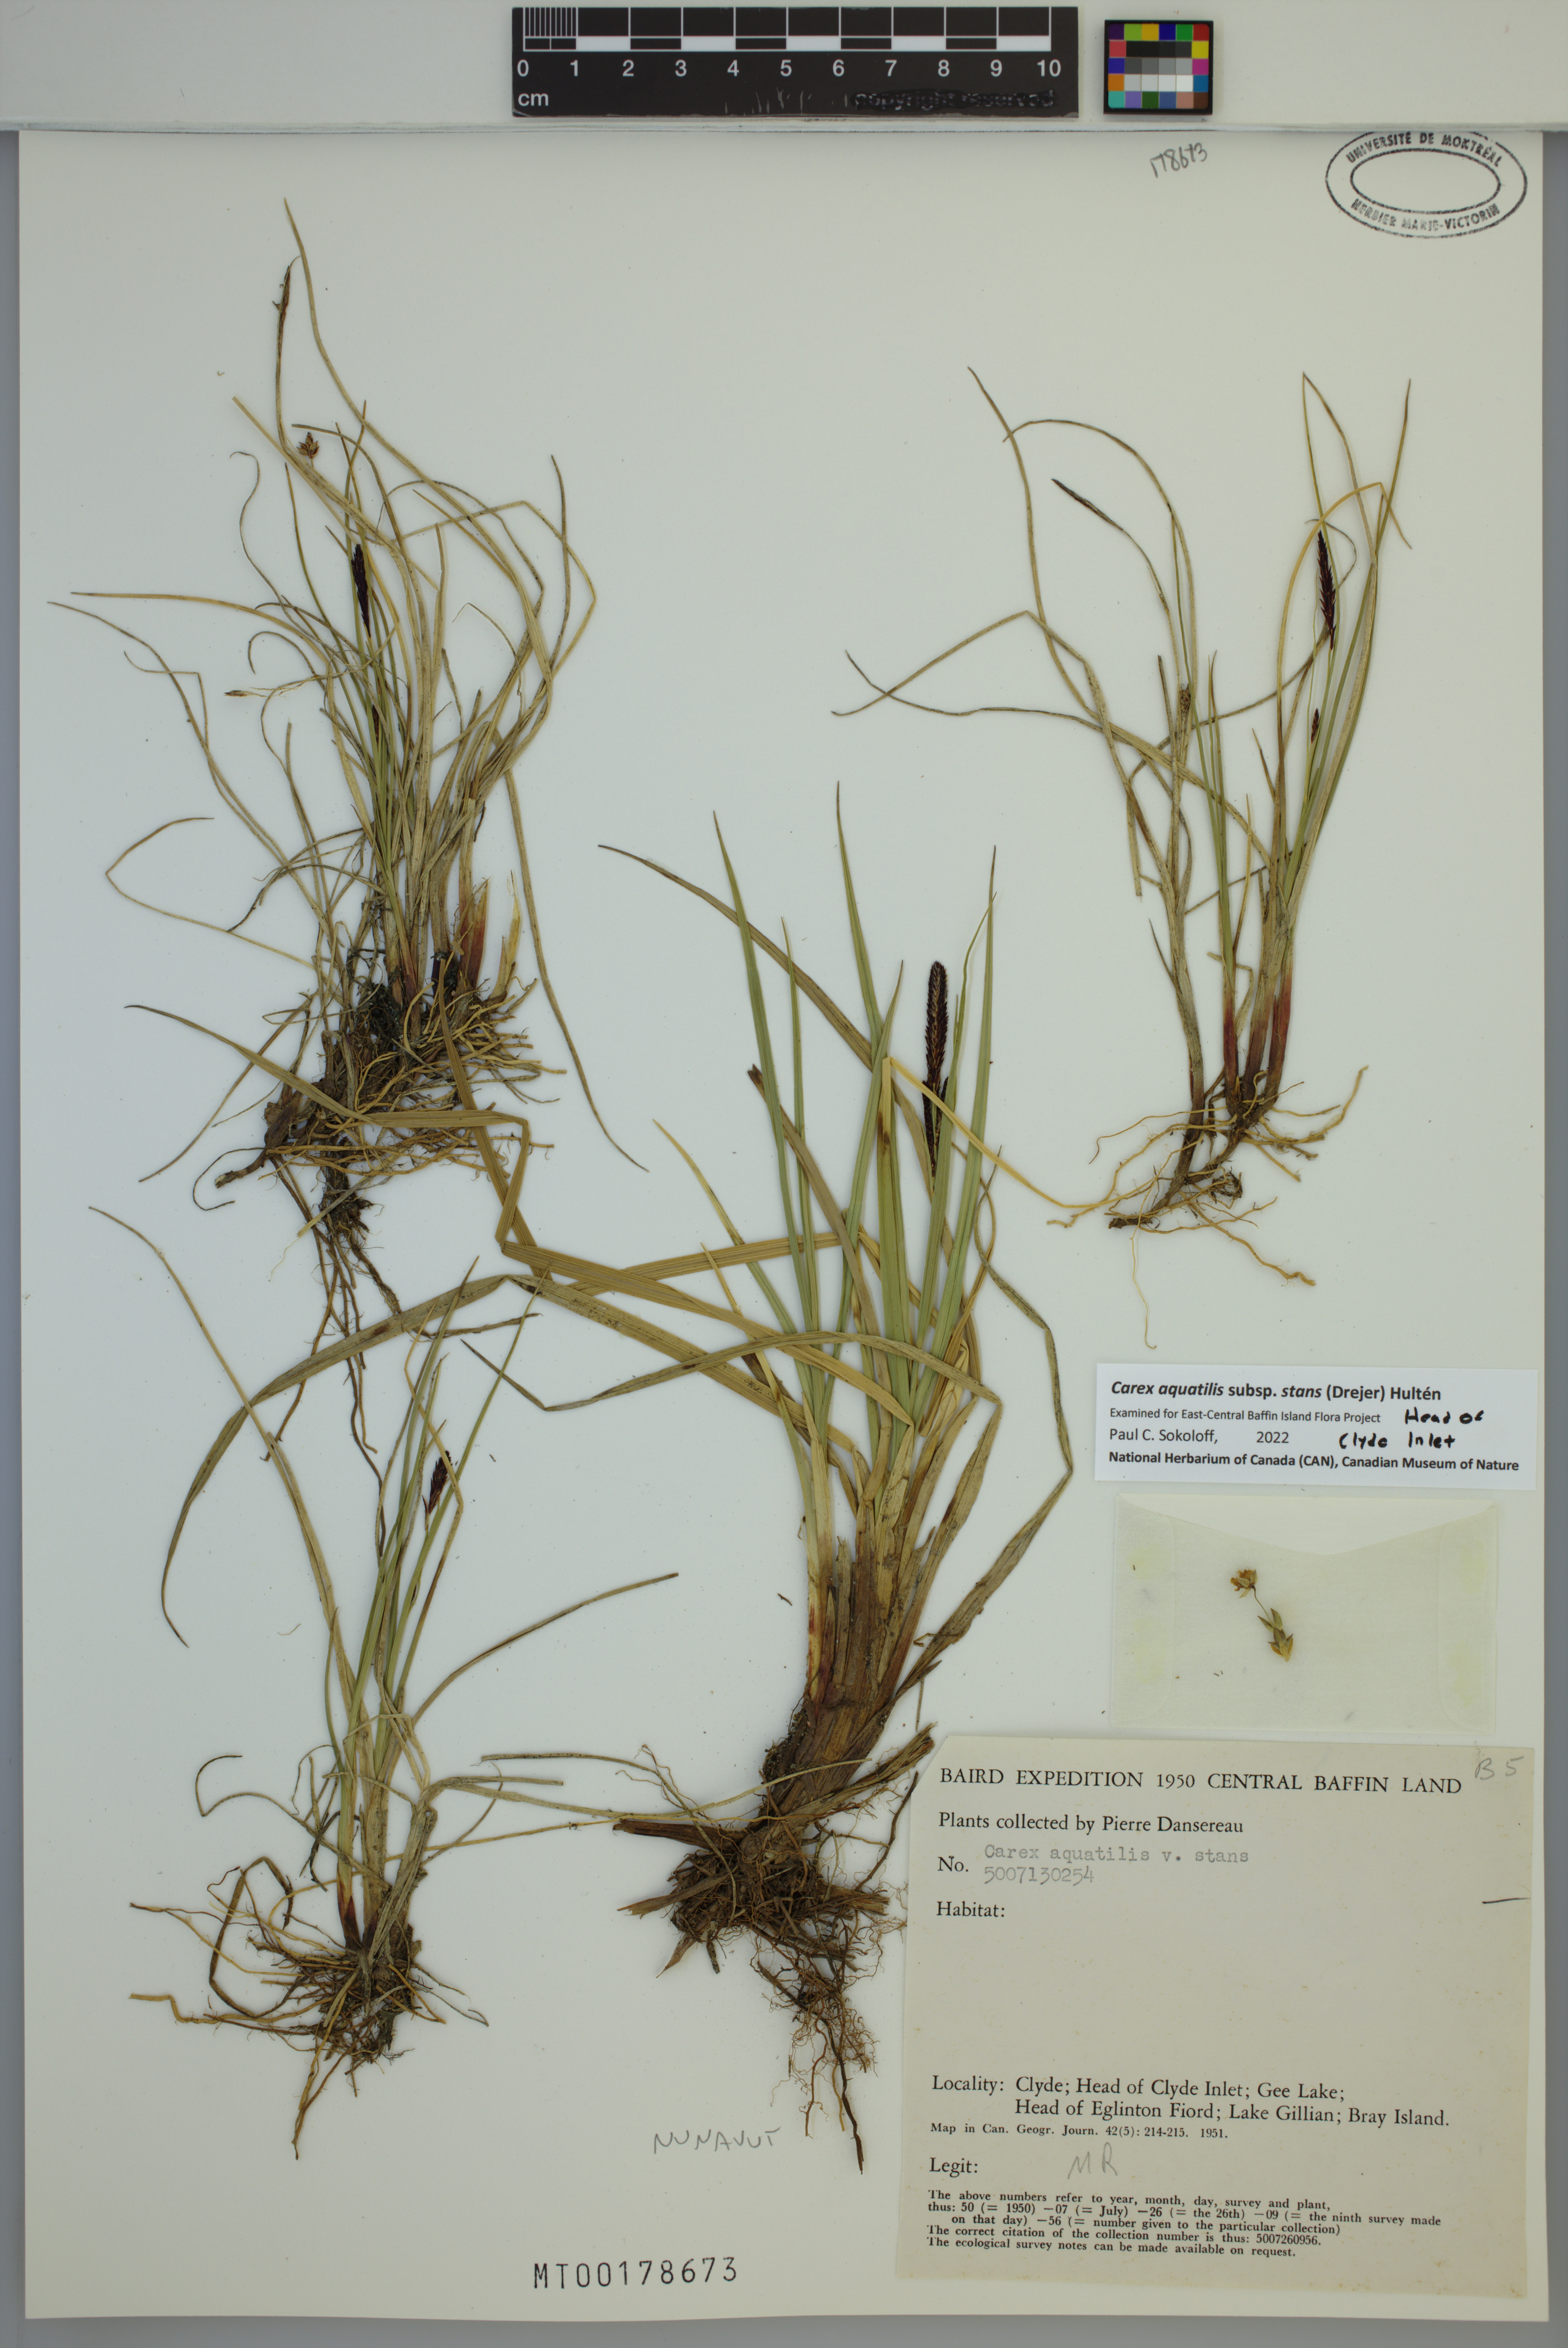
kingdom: Plantae
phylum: Tracheophyta
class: Liliopsida
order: Poales
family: Cyperaceae
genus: Carex
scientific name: Carex aquatilis
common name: Water sedge
